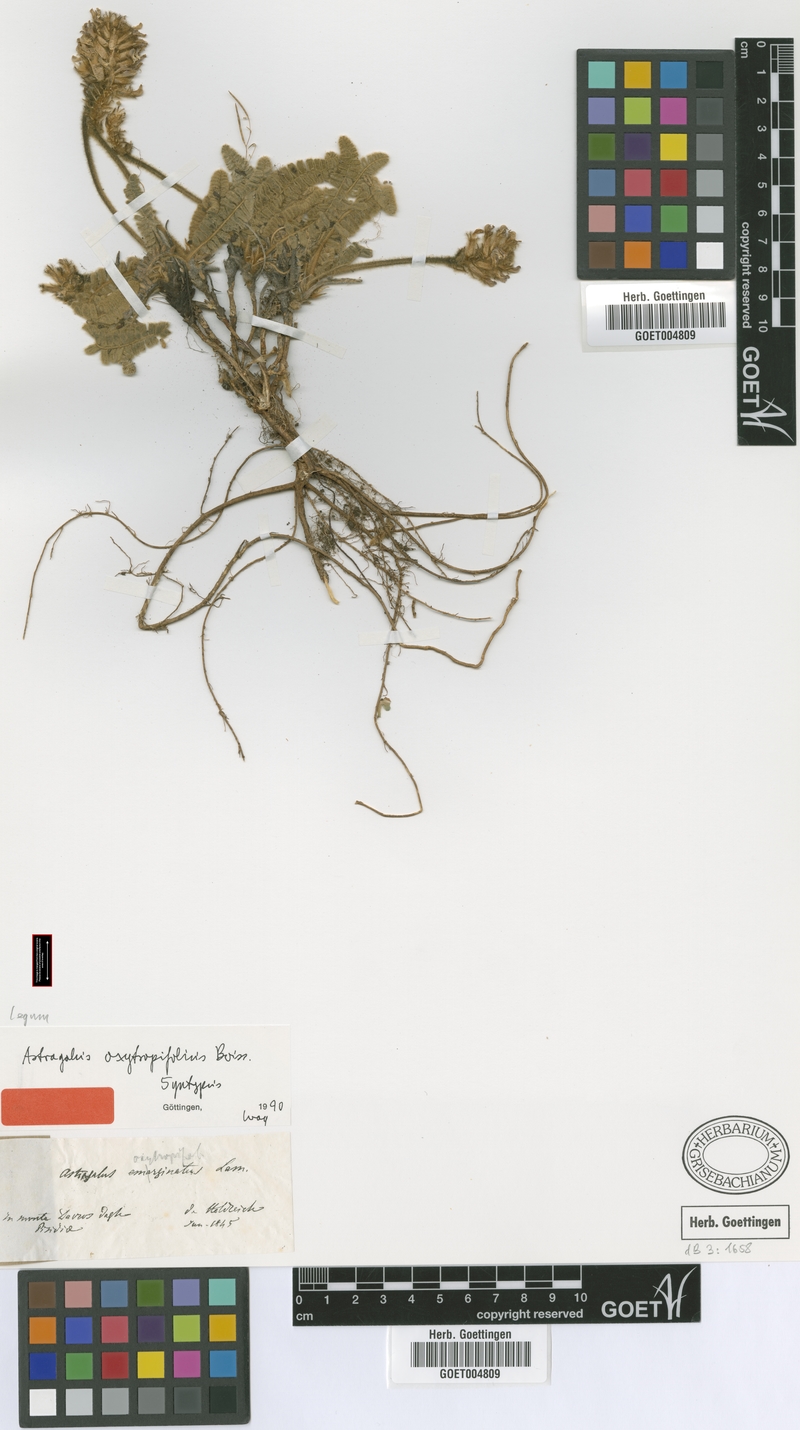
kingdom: Plantae
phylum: Tracheophyta
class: Magnoliopsida
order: Fabales
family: Fabaceae
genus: Astragalus
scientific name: Astragalus oxytropifolius
